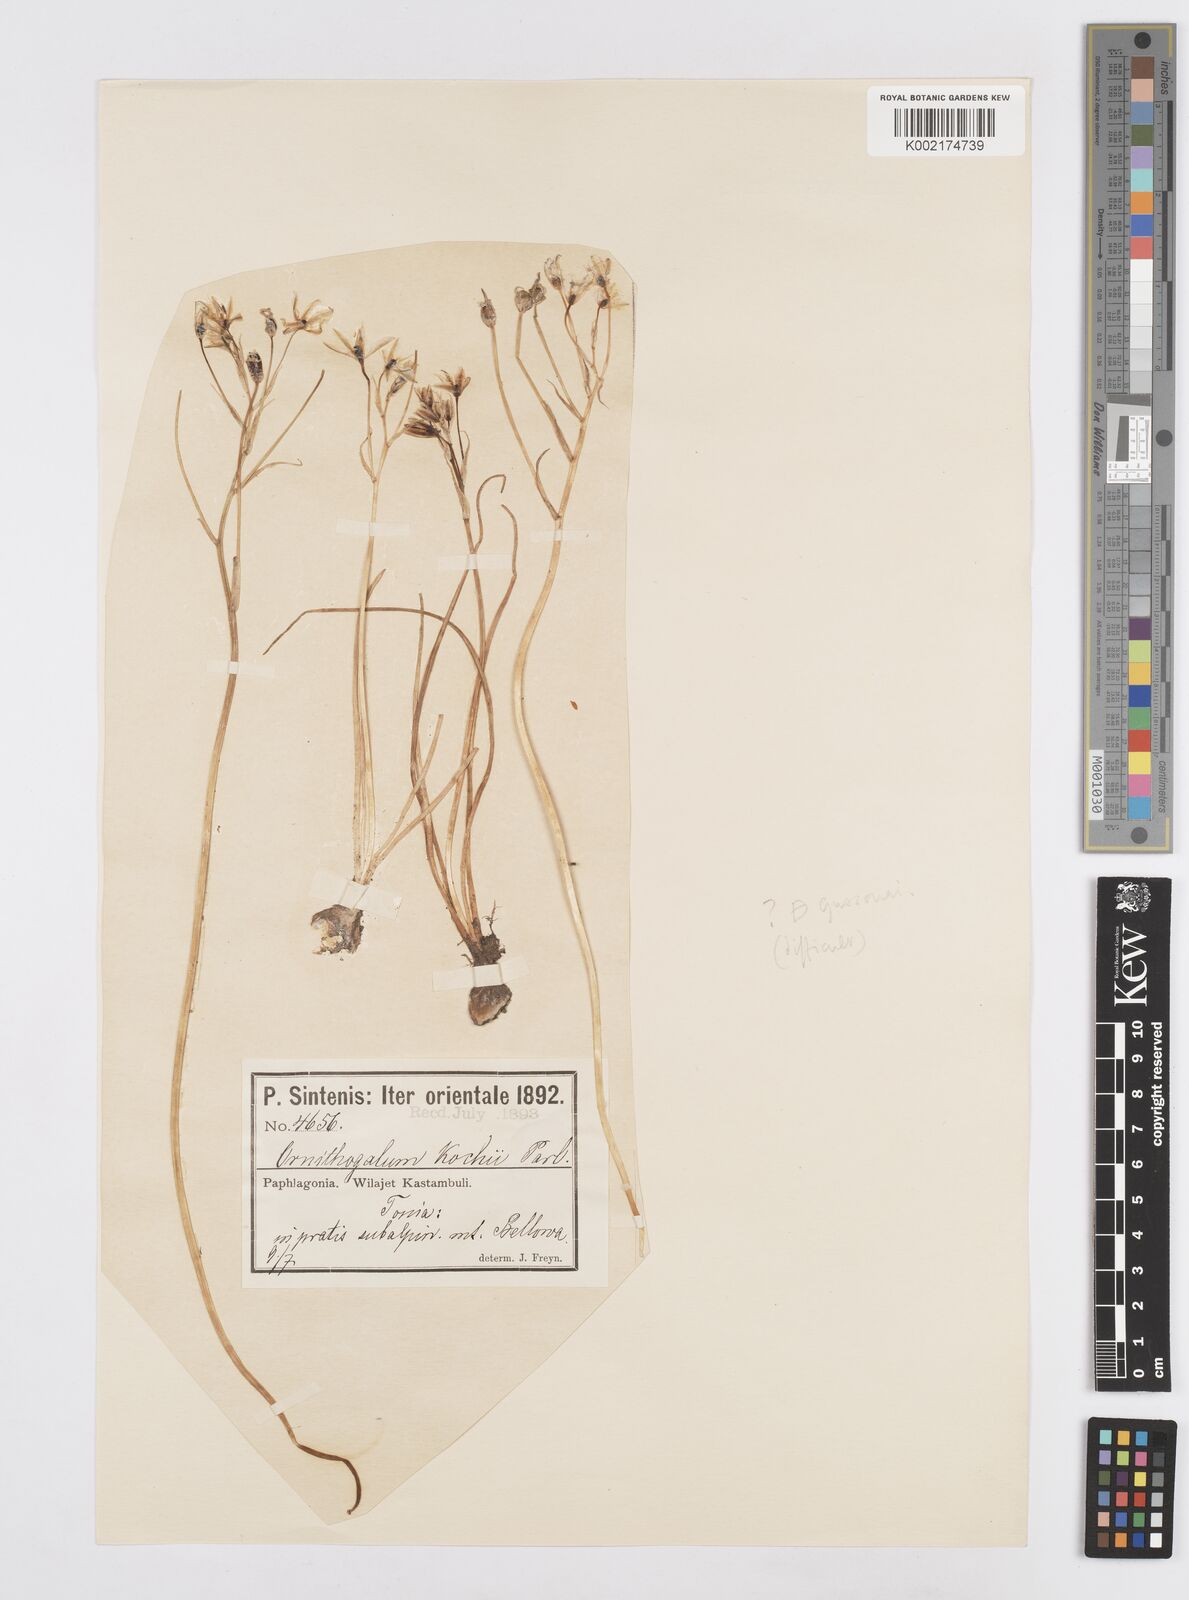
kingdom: Plantae
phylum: Tracheophyta
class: Liliopsida
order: Asparagales
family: Asparagaceae
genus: Ornithogalum
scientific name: Ornithogalum gussonei
